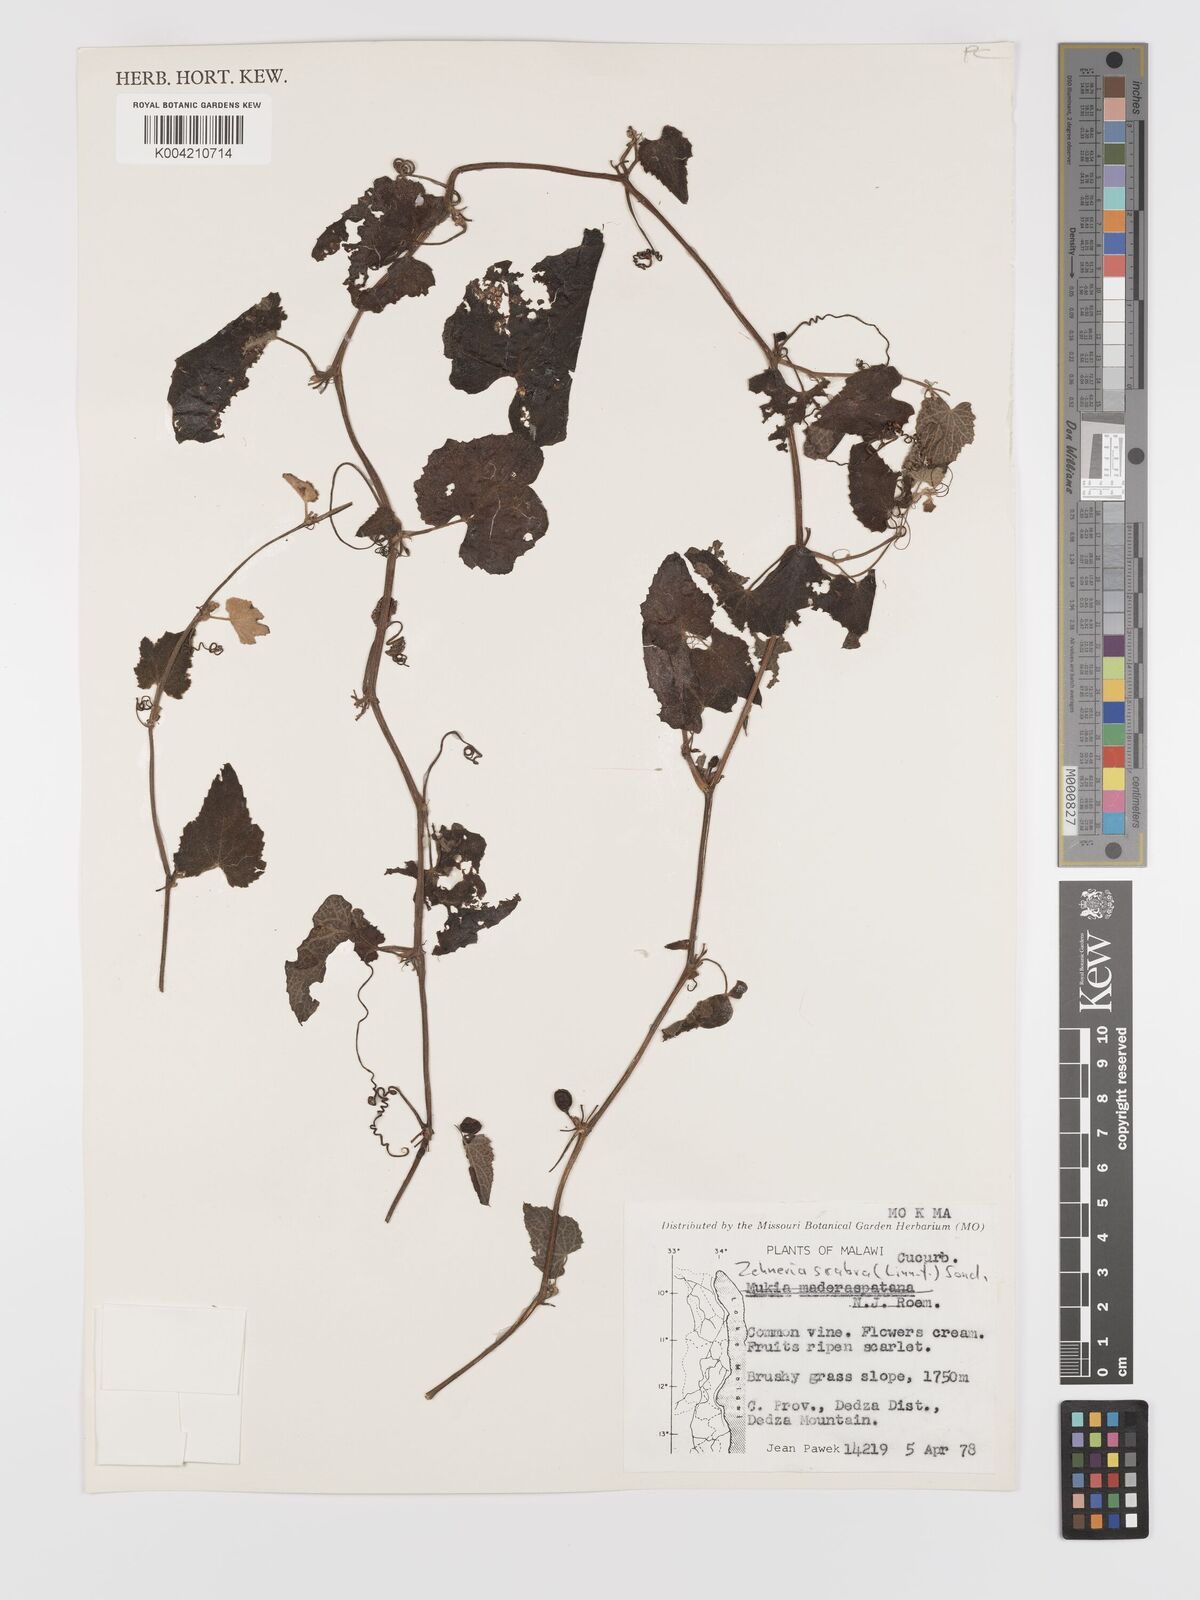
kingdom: Plantae
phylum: Tracheophyta
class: Magnoliopsida
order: Cucurbitales
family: Cucurbitaceae
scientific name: Cucurbitaceae
